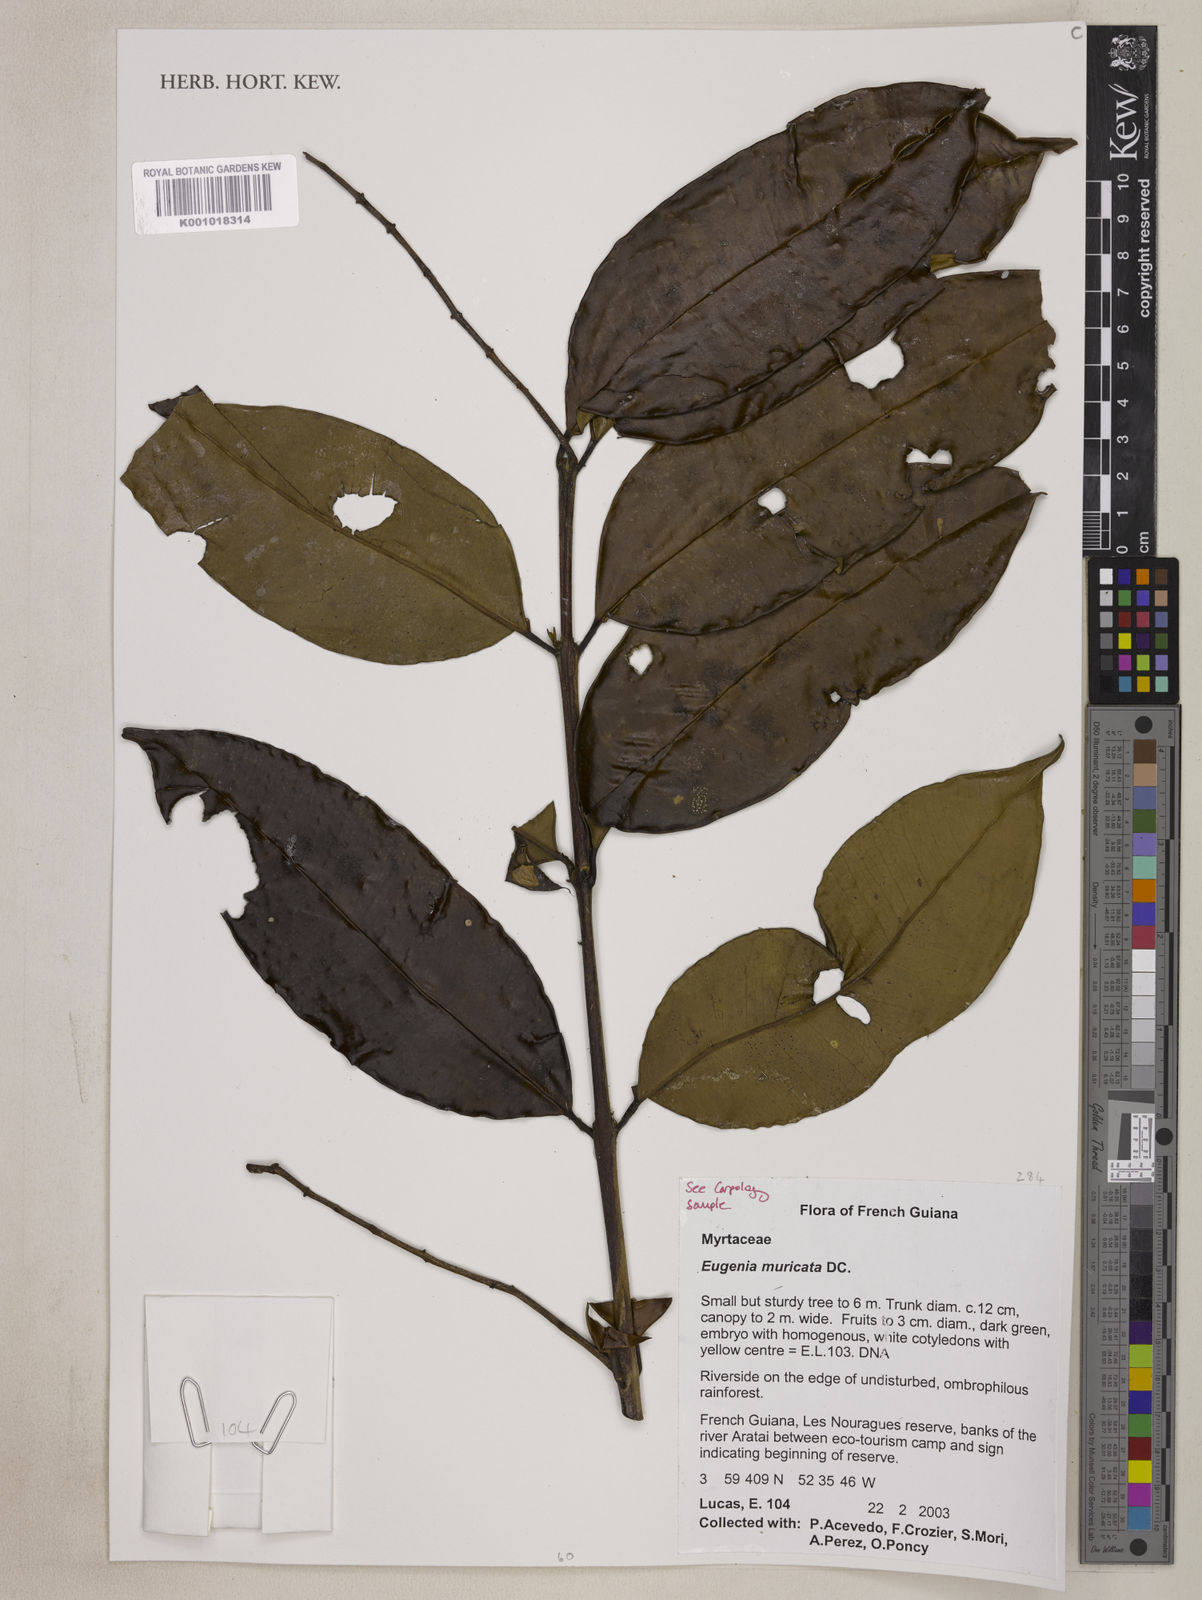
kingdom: Plantae
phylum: Tracheophyta
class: Magnoliopsida
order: Myrtales
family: Myrtaceae
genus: Eugenia
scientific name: Eugenia muricata
